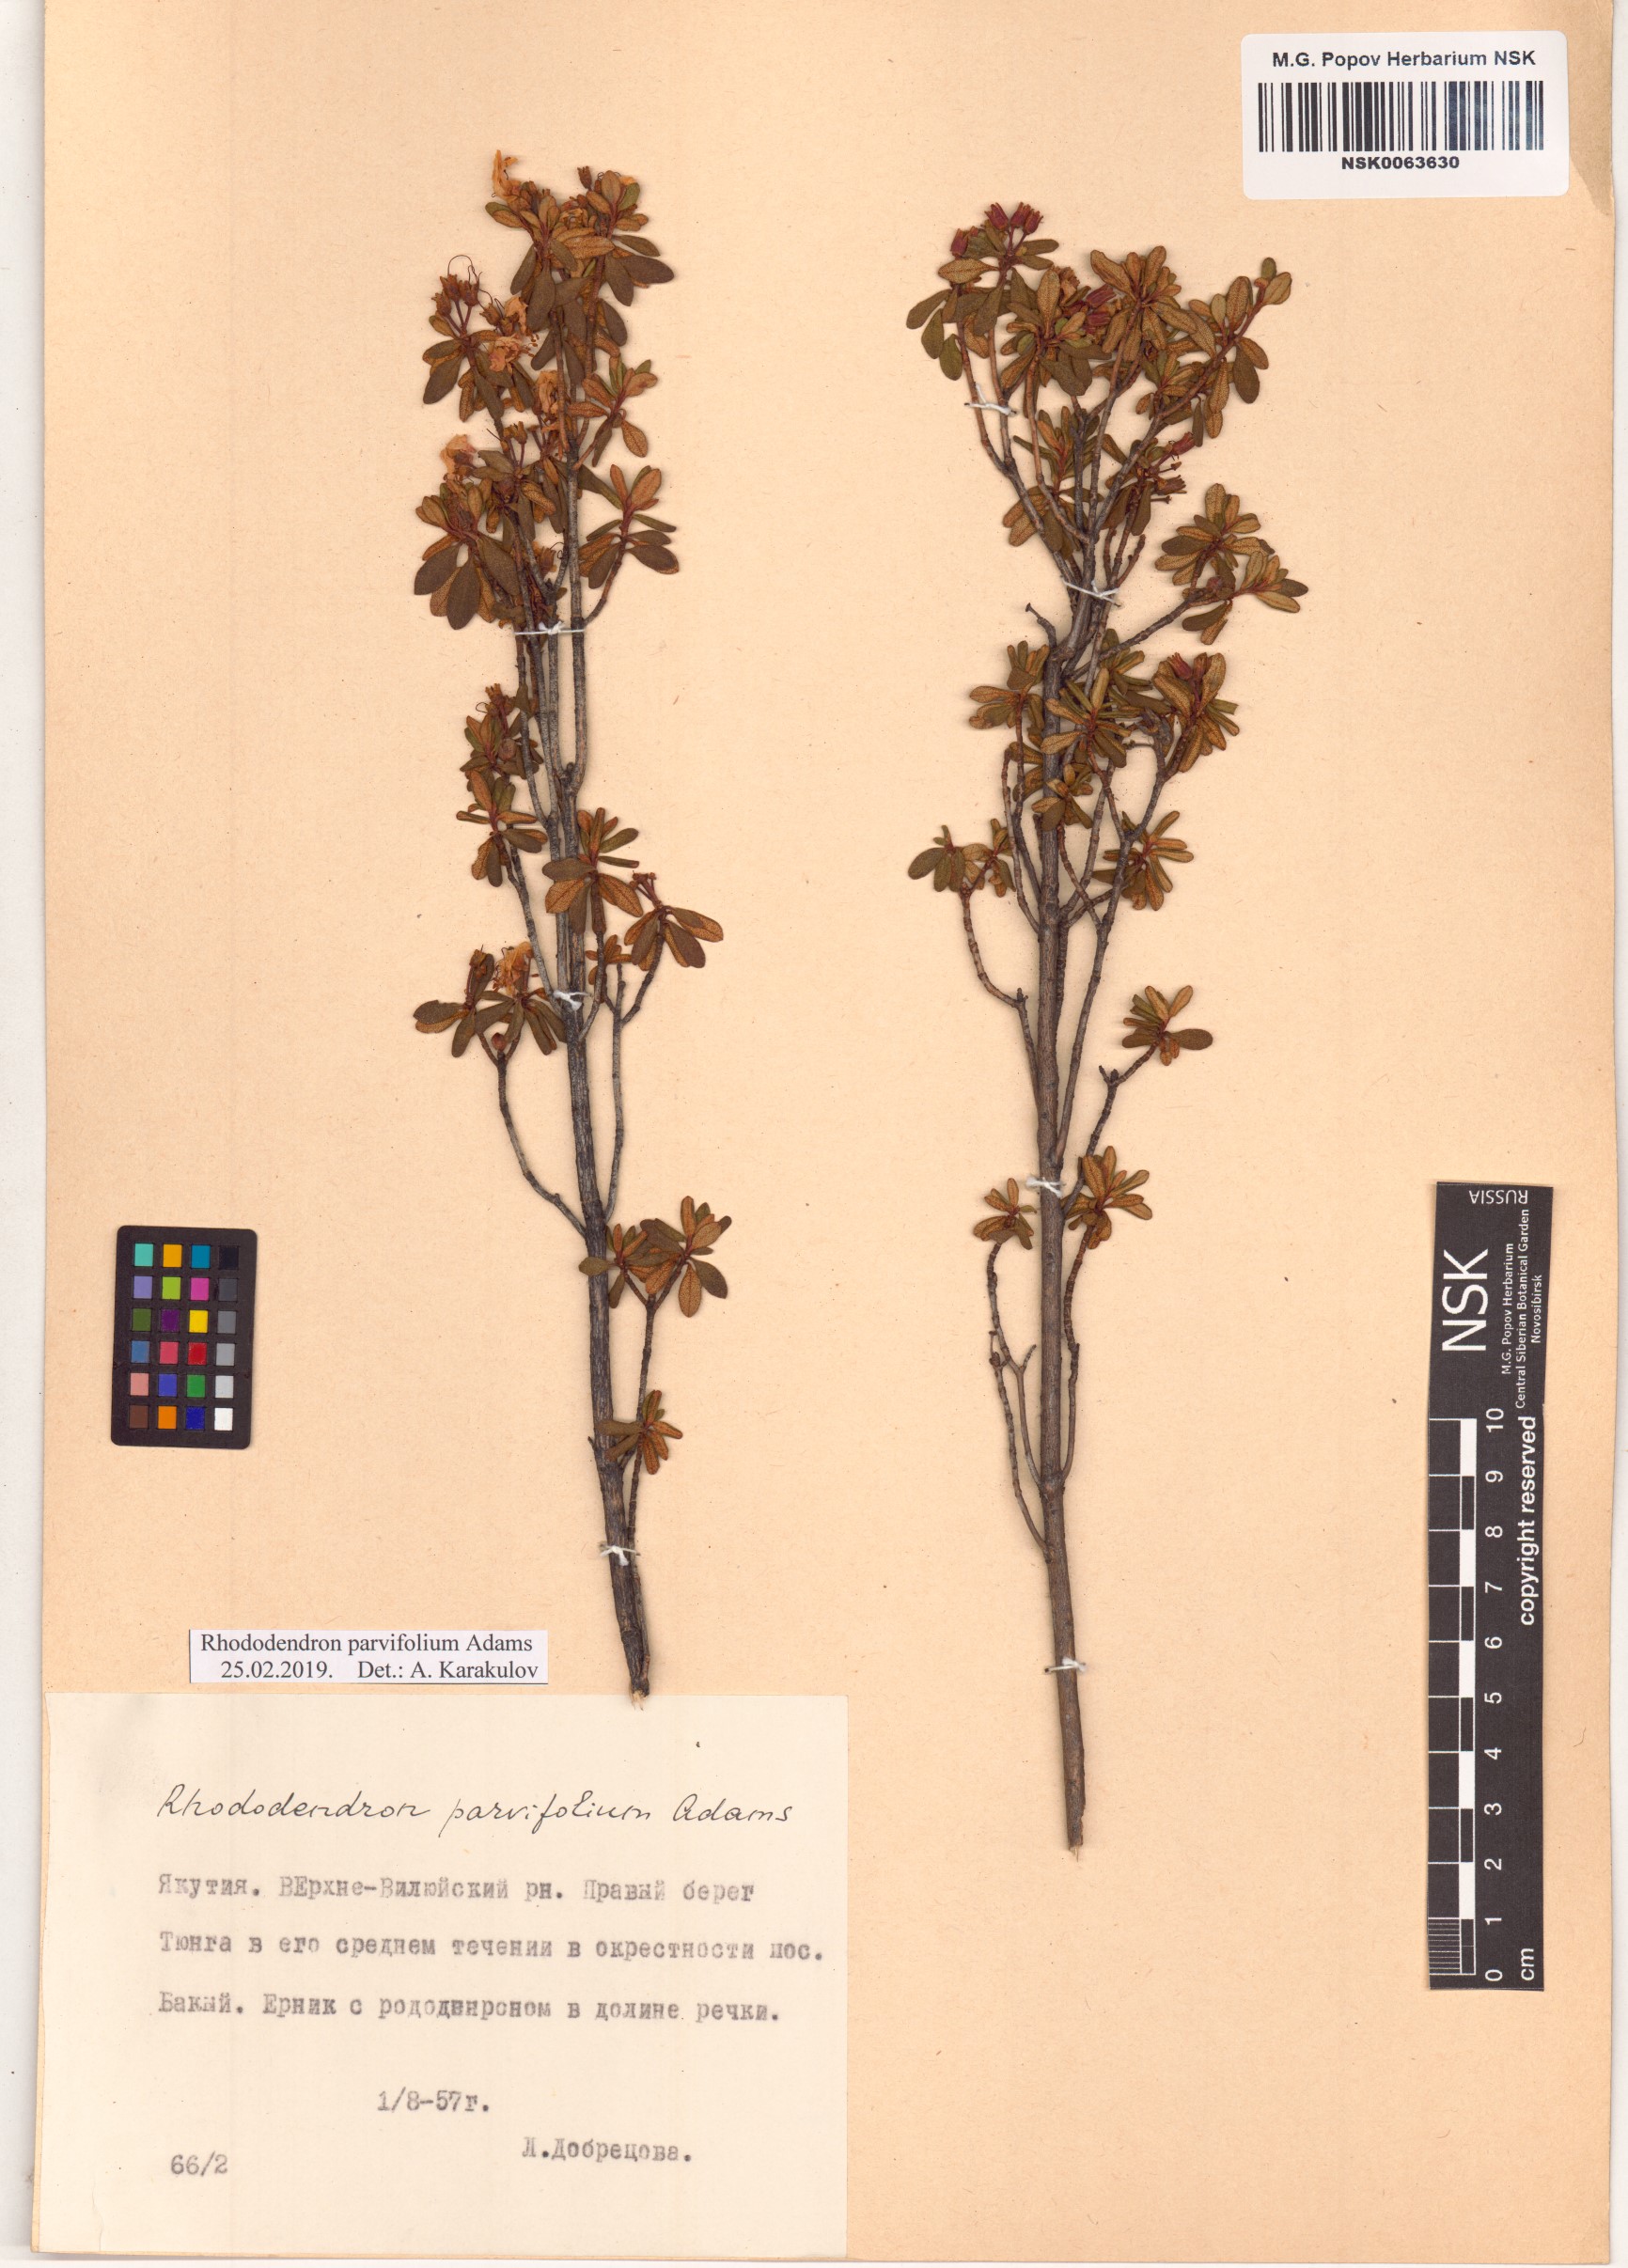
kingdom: Plantae
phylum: Tracheophyta
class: Magnoliopsida
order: Ericales
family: Ericaceae
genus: Rhododendron
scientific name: Rhododendron parvifolium
